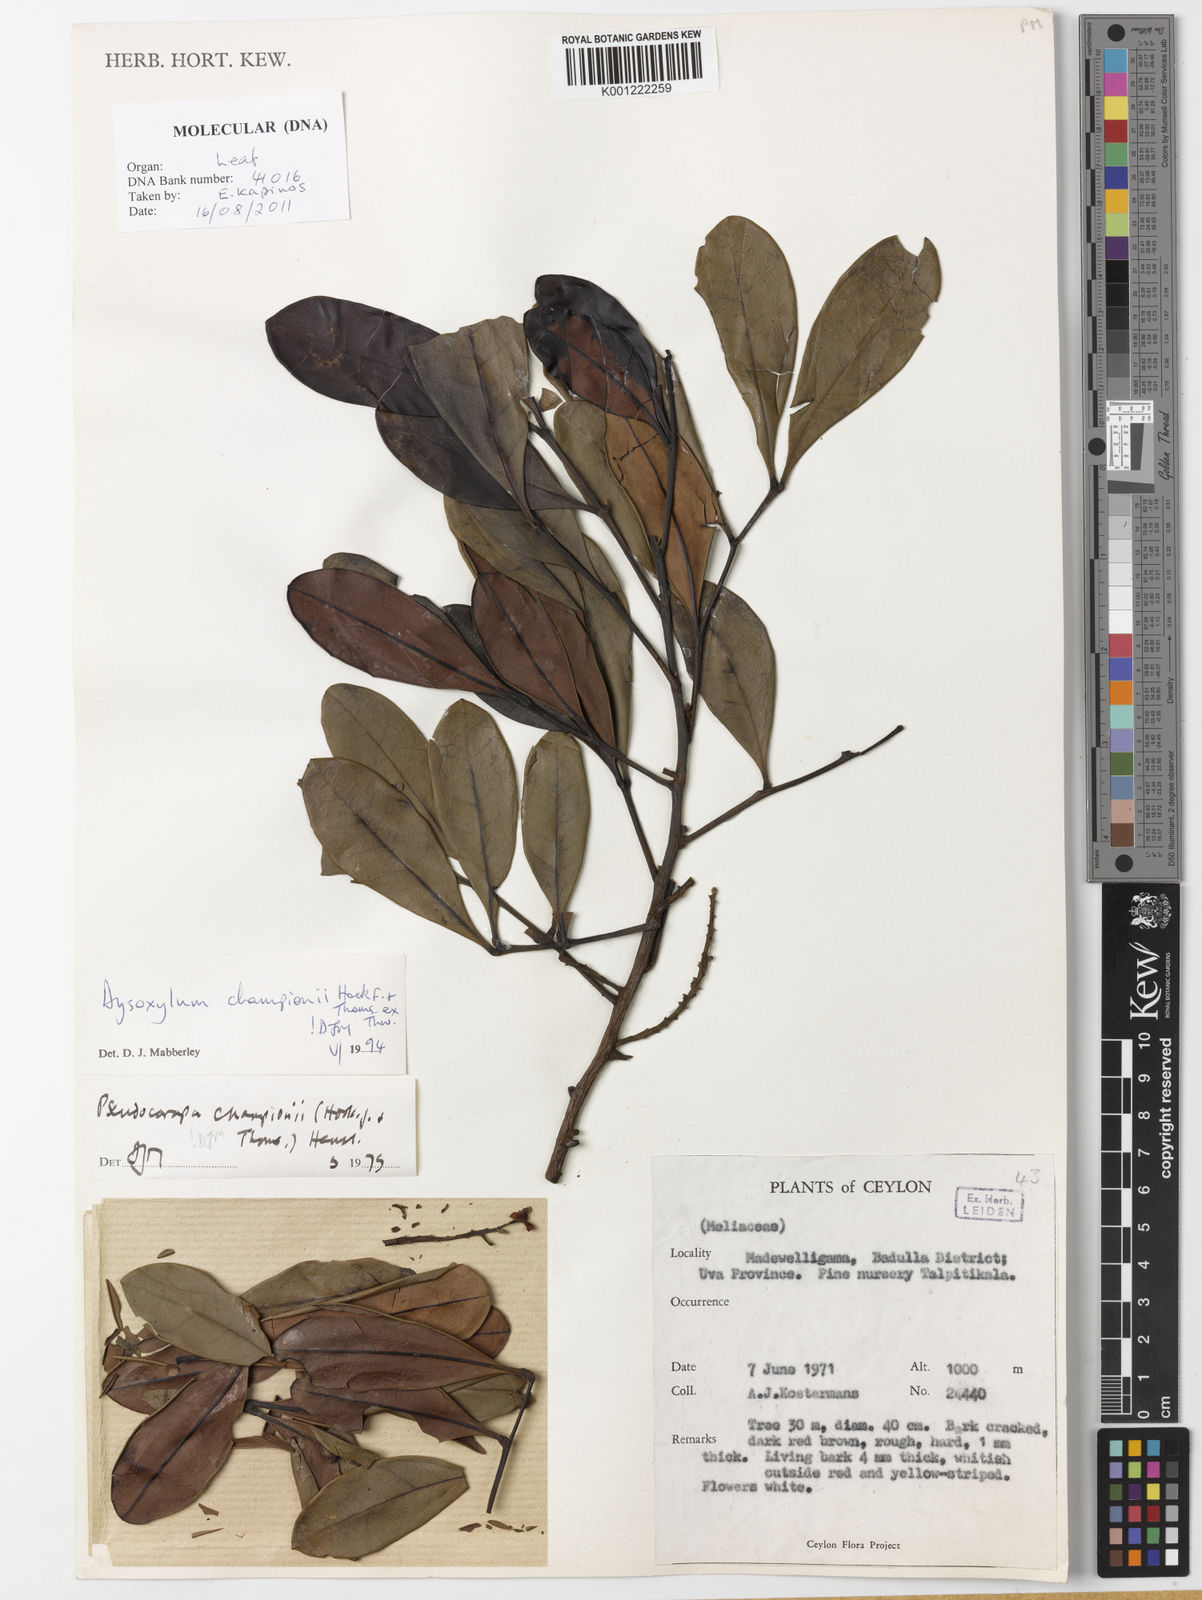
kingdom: Plantae
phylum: Tracheophyta
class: Magnoliopsida
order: Sapindales
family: Meliaceae
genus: Pseudocarapa
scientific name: Pseudocarapa championii
